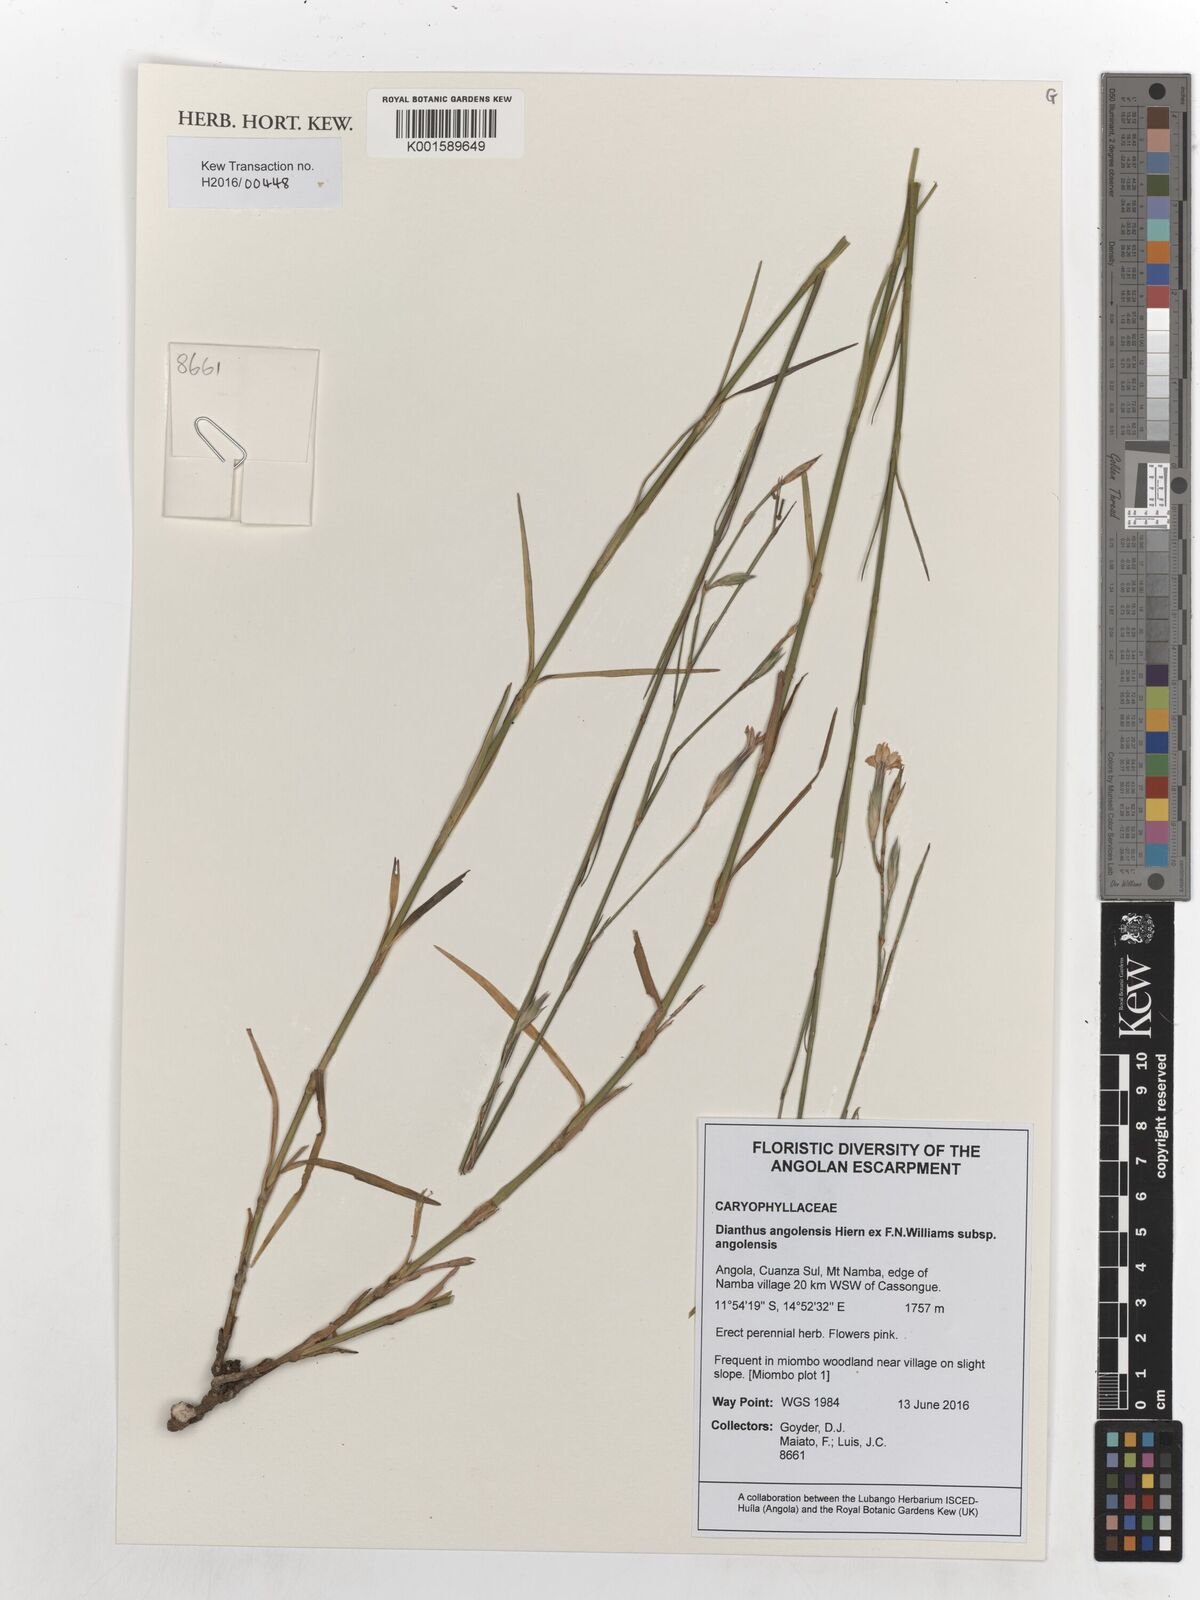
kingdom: Plantae
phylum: Tracheophyta
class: Magnoliopsida
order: Caryophyllales
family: Caryophyllaceae
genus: Dianthus
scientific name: Dianthus angolensis
